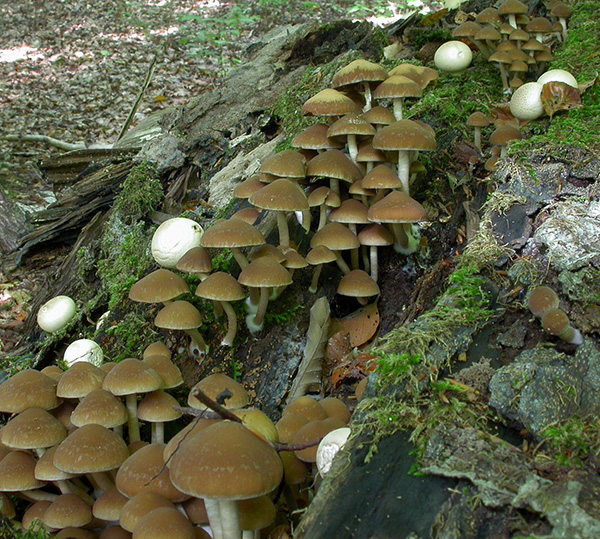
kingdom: Fungi
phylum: Basidiomycota
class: Agaricomycetes
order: Agaricales
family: Psathyrellaceae
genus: Psathyrella
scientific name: Psathyrella piluliformis
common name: lysstokket mørkhat
